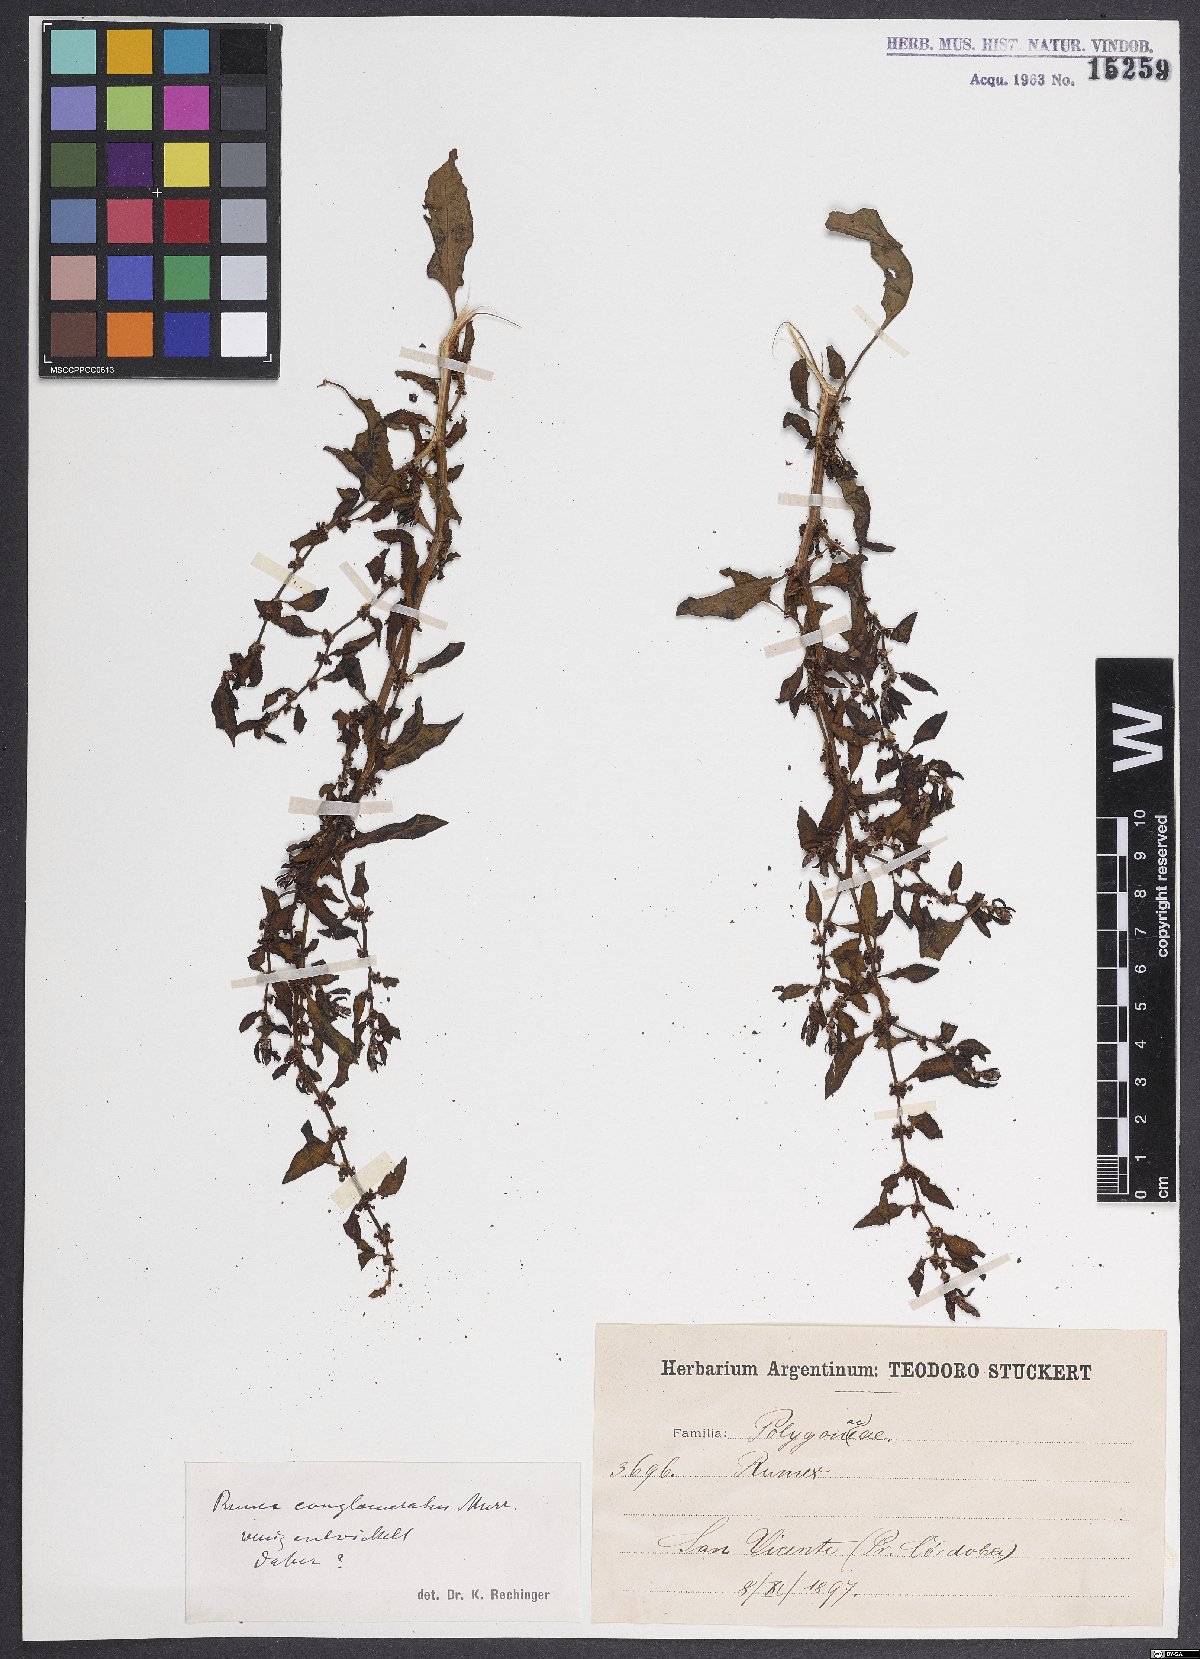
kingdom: Plantae
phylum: Tracheophyta
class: Magnoliopsida
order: Caryophyllales
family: Polygonaceae
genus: Rumex
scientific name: Rumex conglomeratus
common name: Clustered dock
